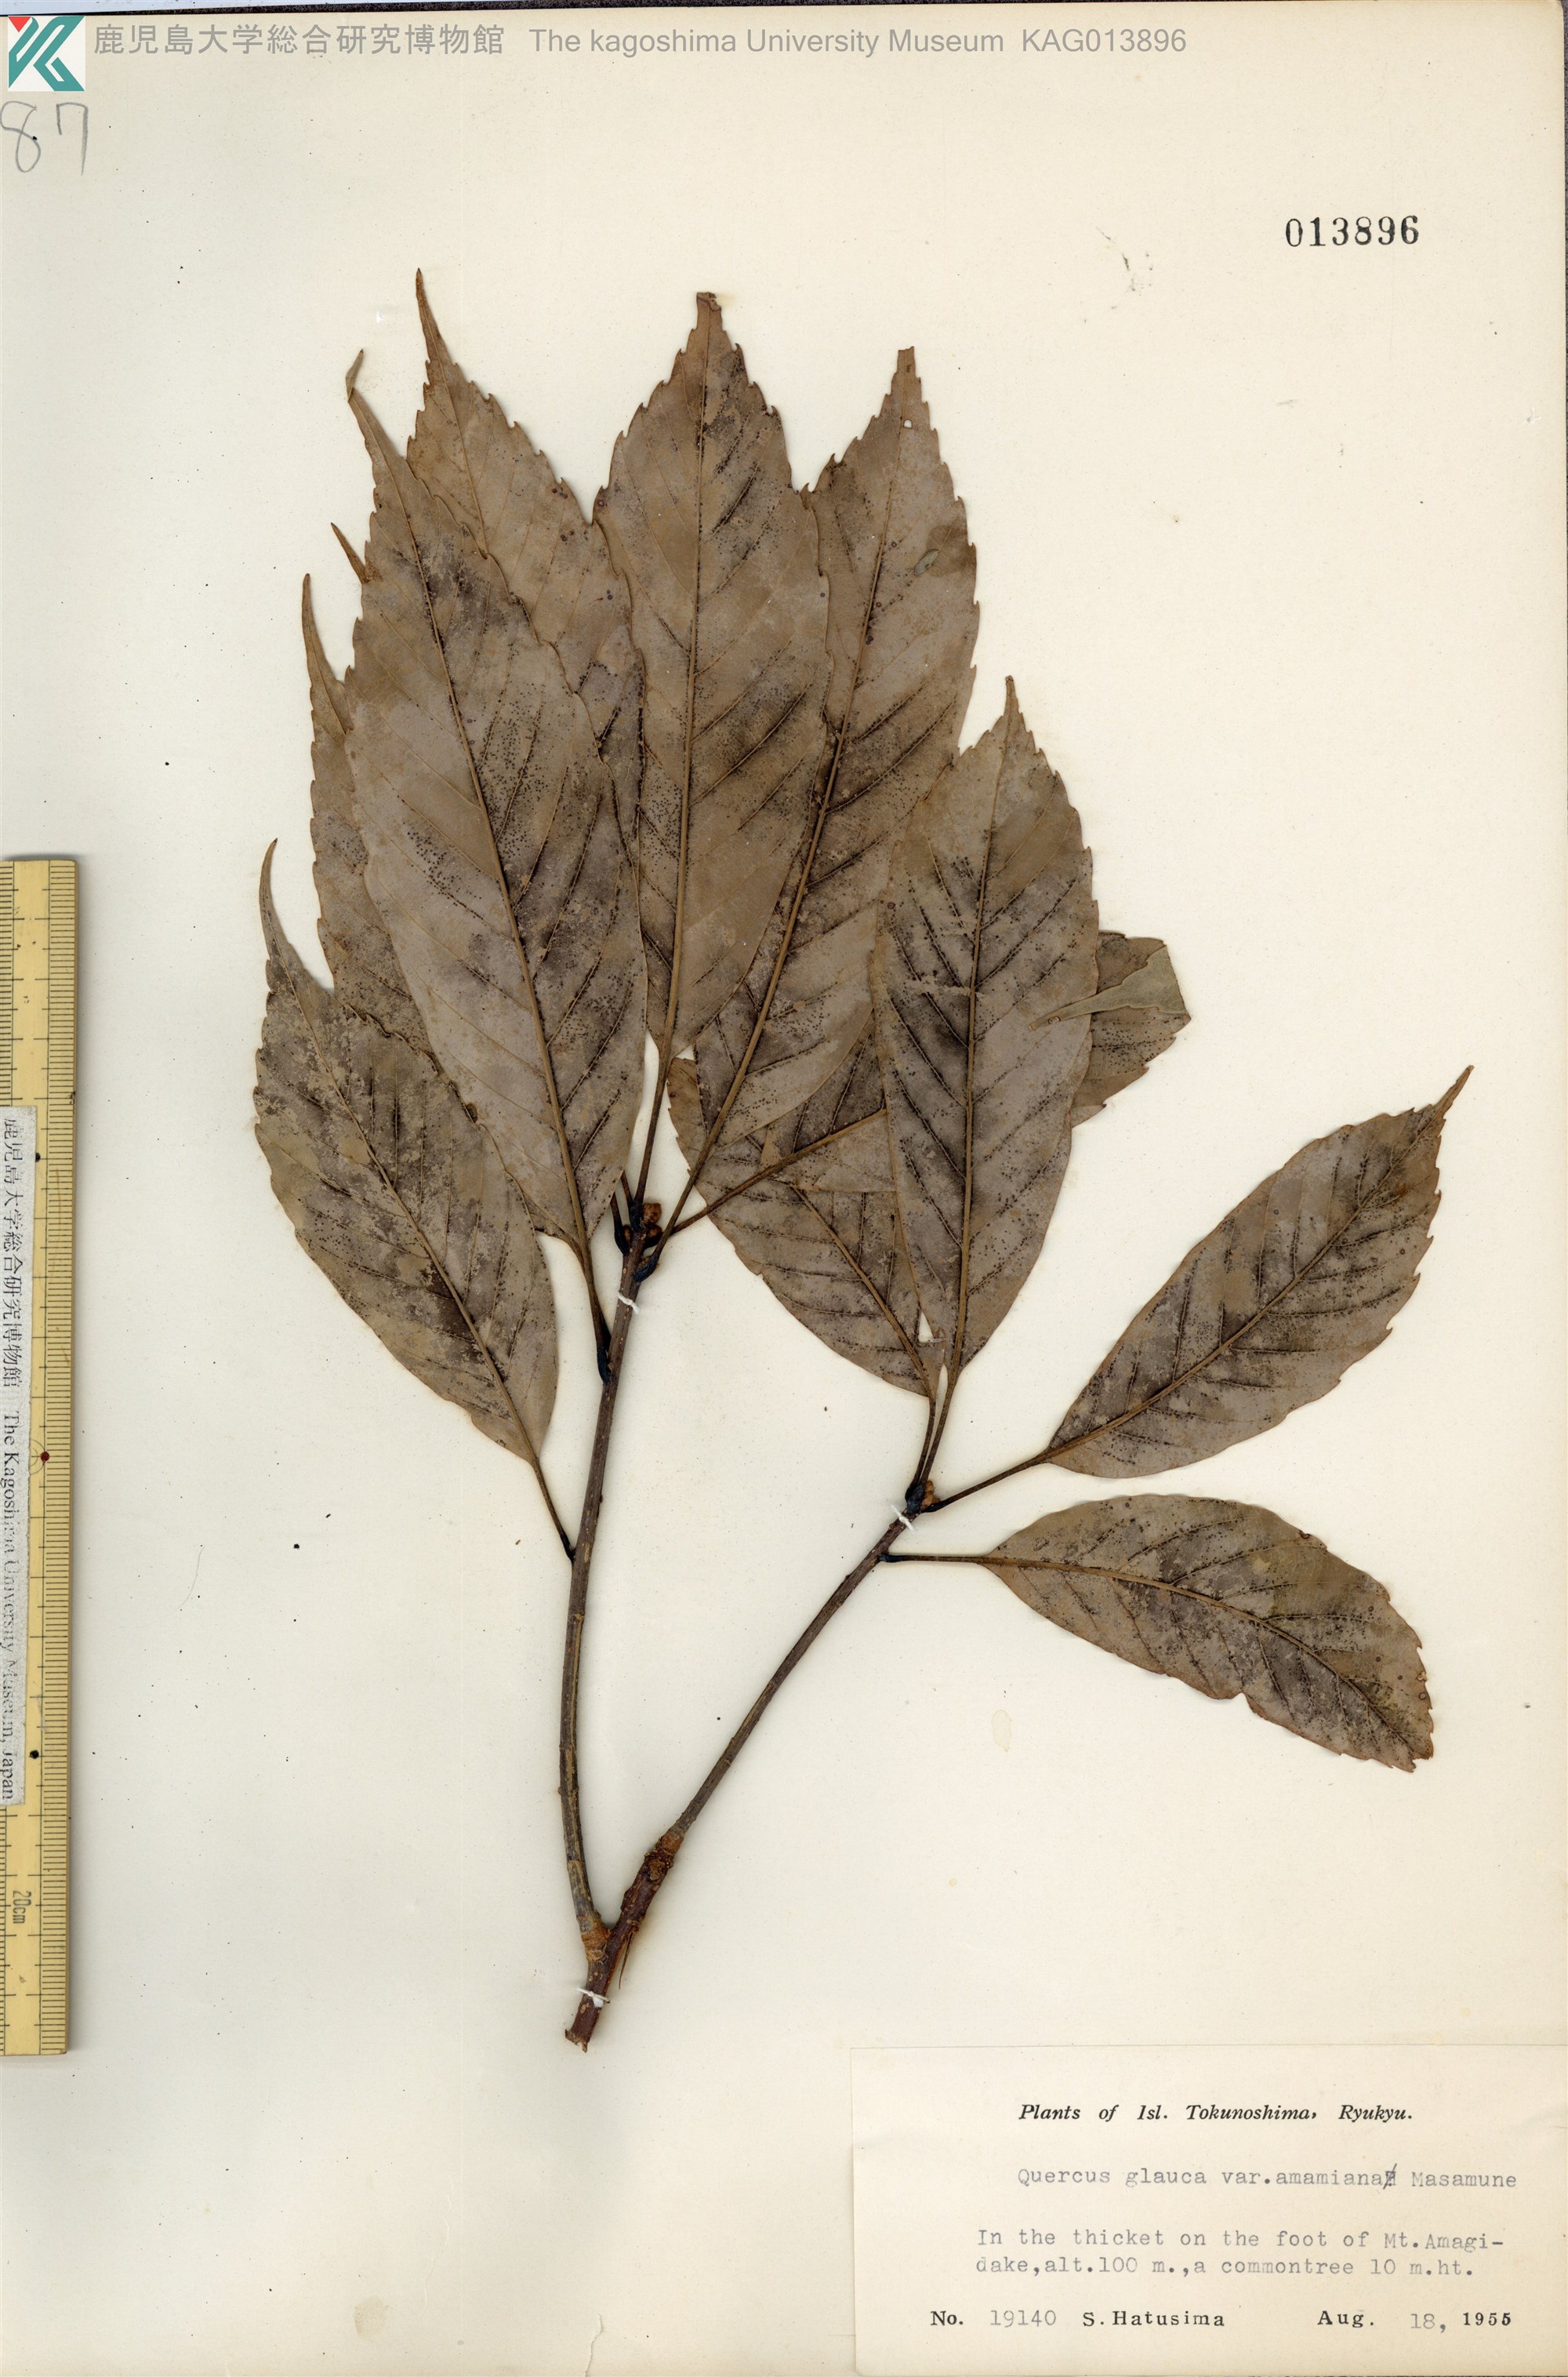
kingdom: Plantae
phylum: Tracheophyta
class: Magnoliopsida
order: Fagales
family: Fagaceae
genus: Quercus
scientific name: Quercus glauca
